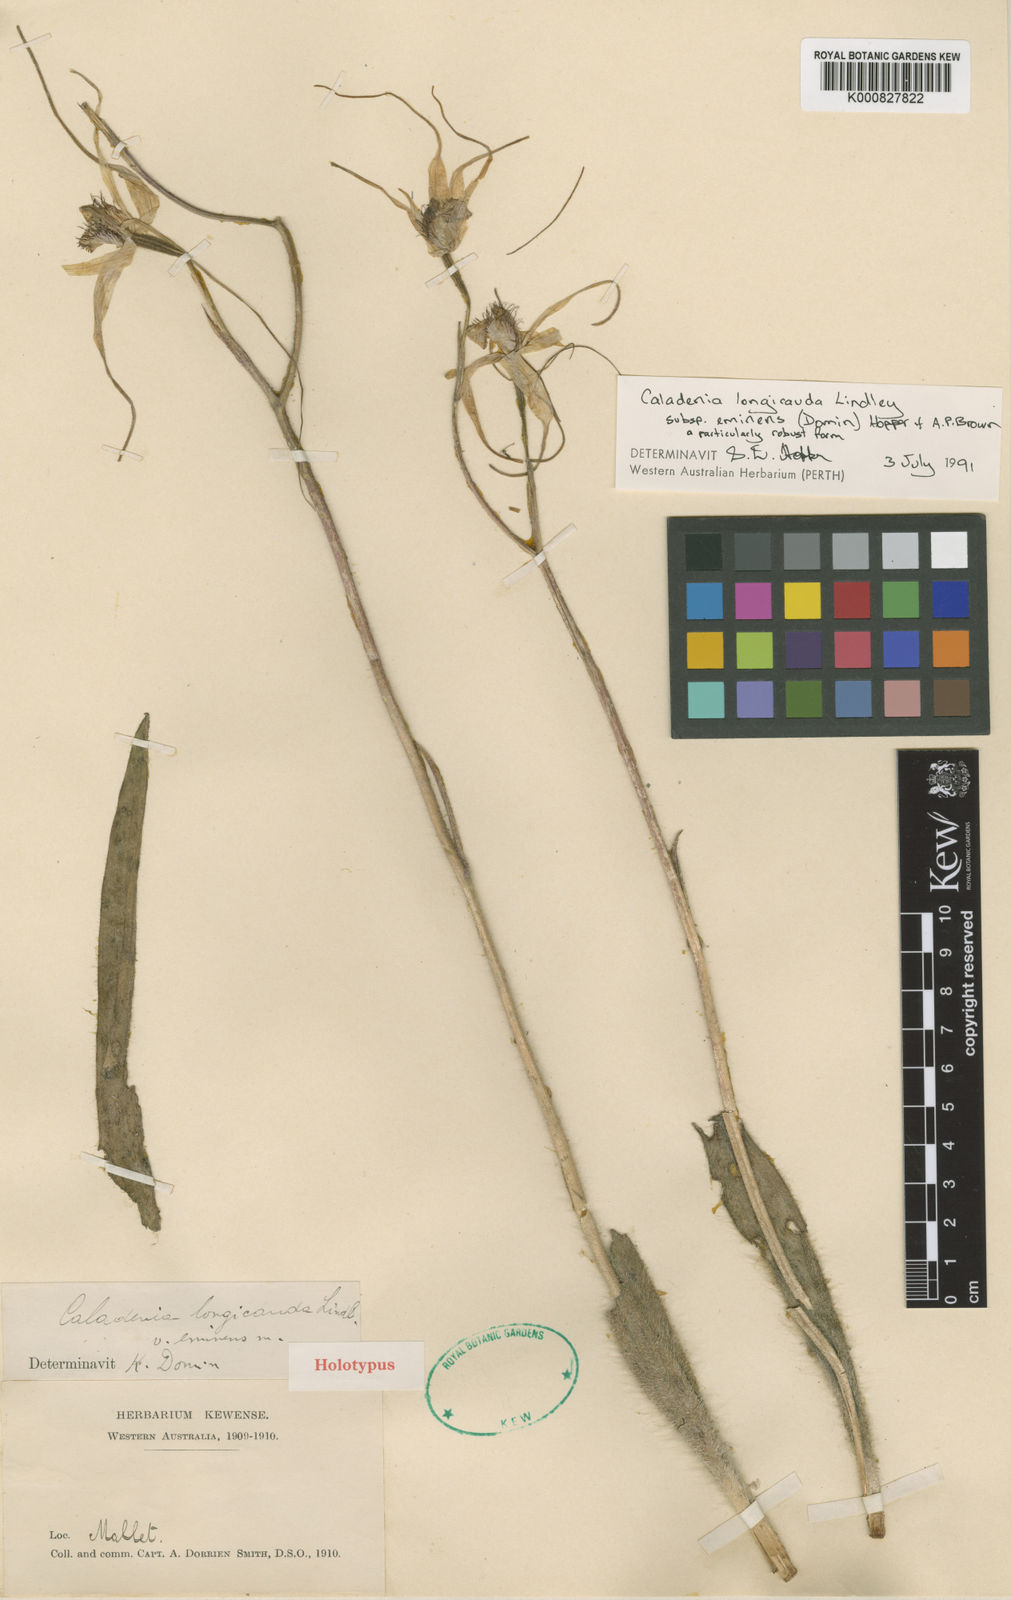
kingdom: Plantae
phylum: Tracheophyta
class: Liliopsida
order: Asparagales
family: Orchidaceae
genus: Caladenia
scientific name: Caladenia longicauda
